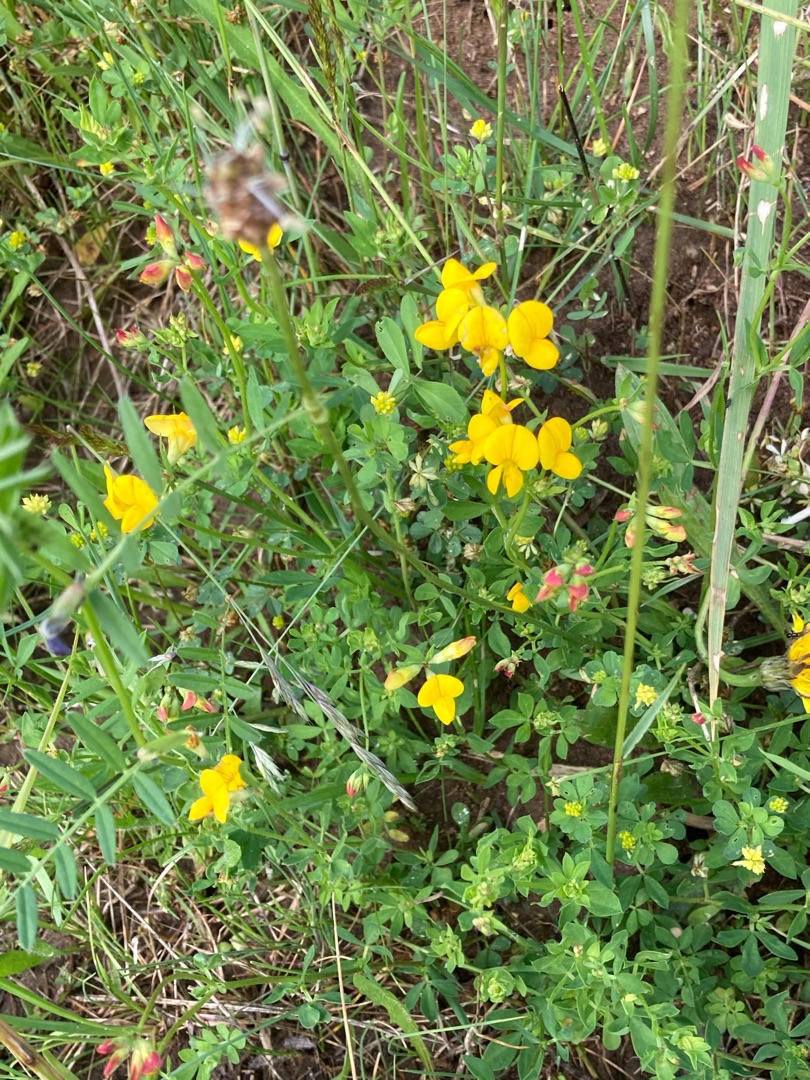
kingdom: Plantae
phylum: Tracheophyta
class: Magnoliopsida
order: Fabales
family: Fabaceae
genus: Lotus
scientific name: Lotus corniculatus
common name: Almindelig kællingetand
